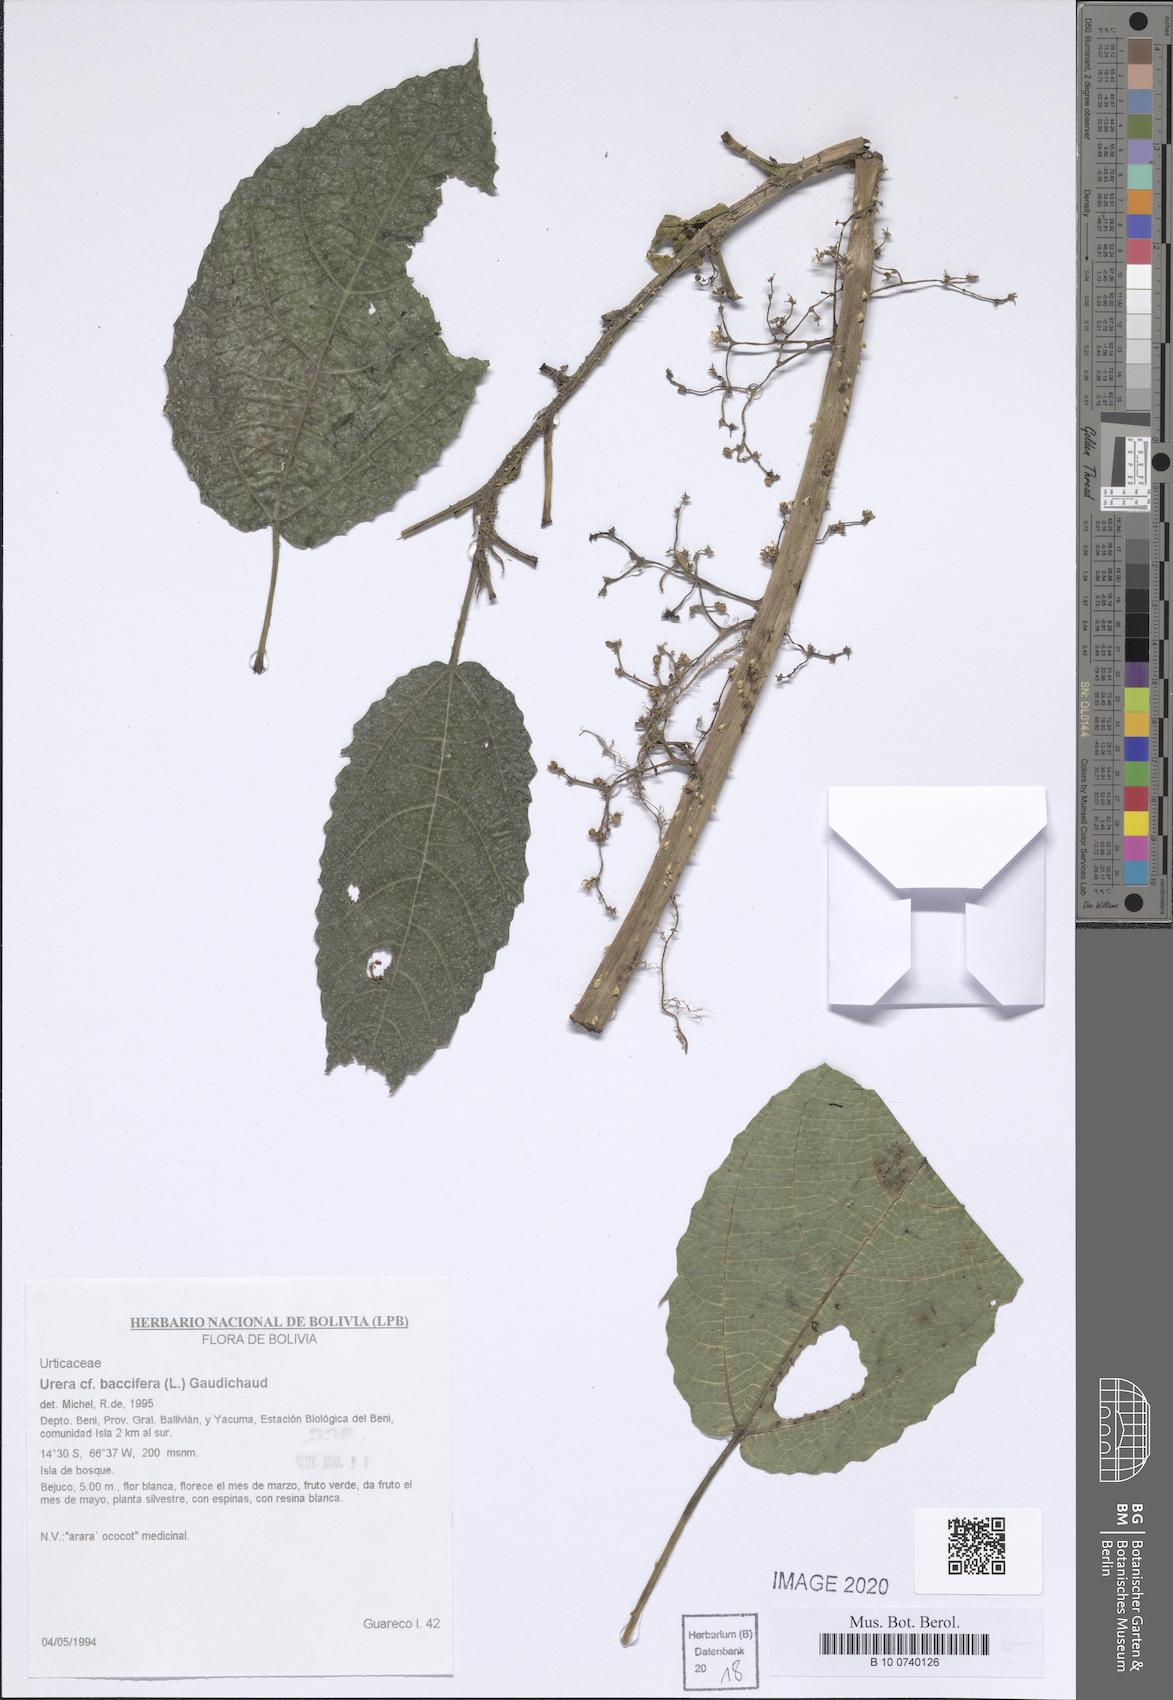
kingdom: Plantae
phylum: Tracheophyta
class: Magnoliopsida
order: Rosales
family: Urticaceae
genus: Urera
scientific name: Urera baccifera
